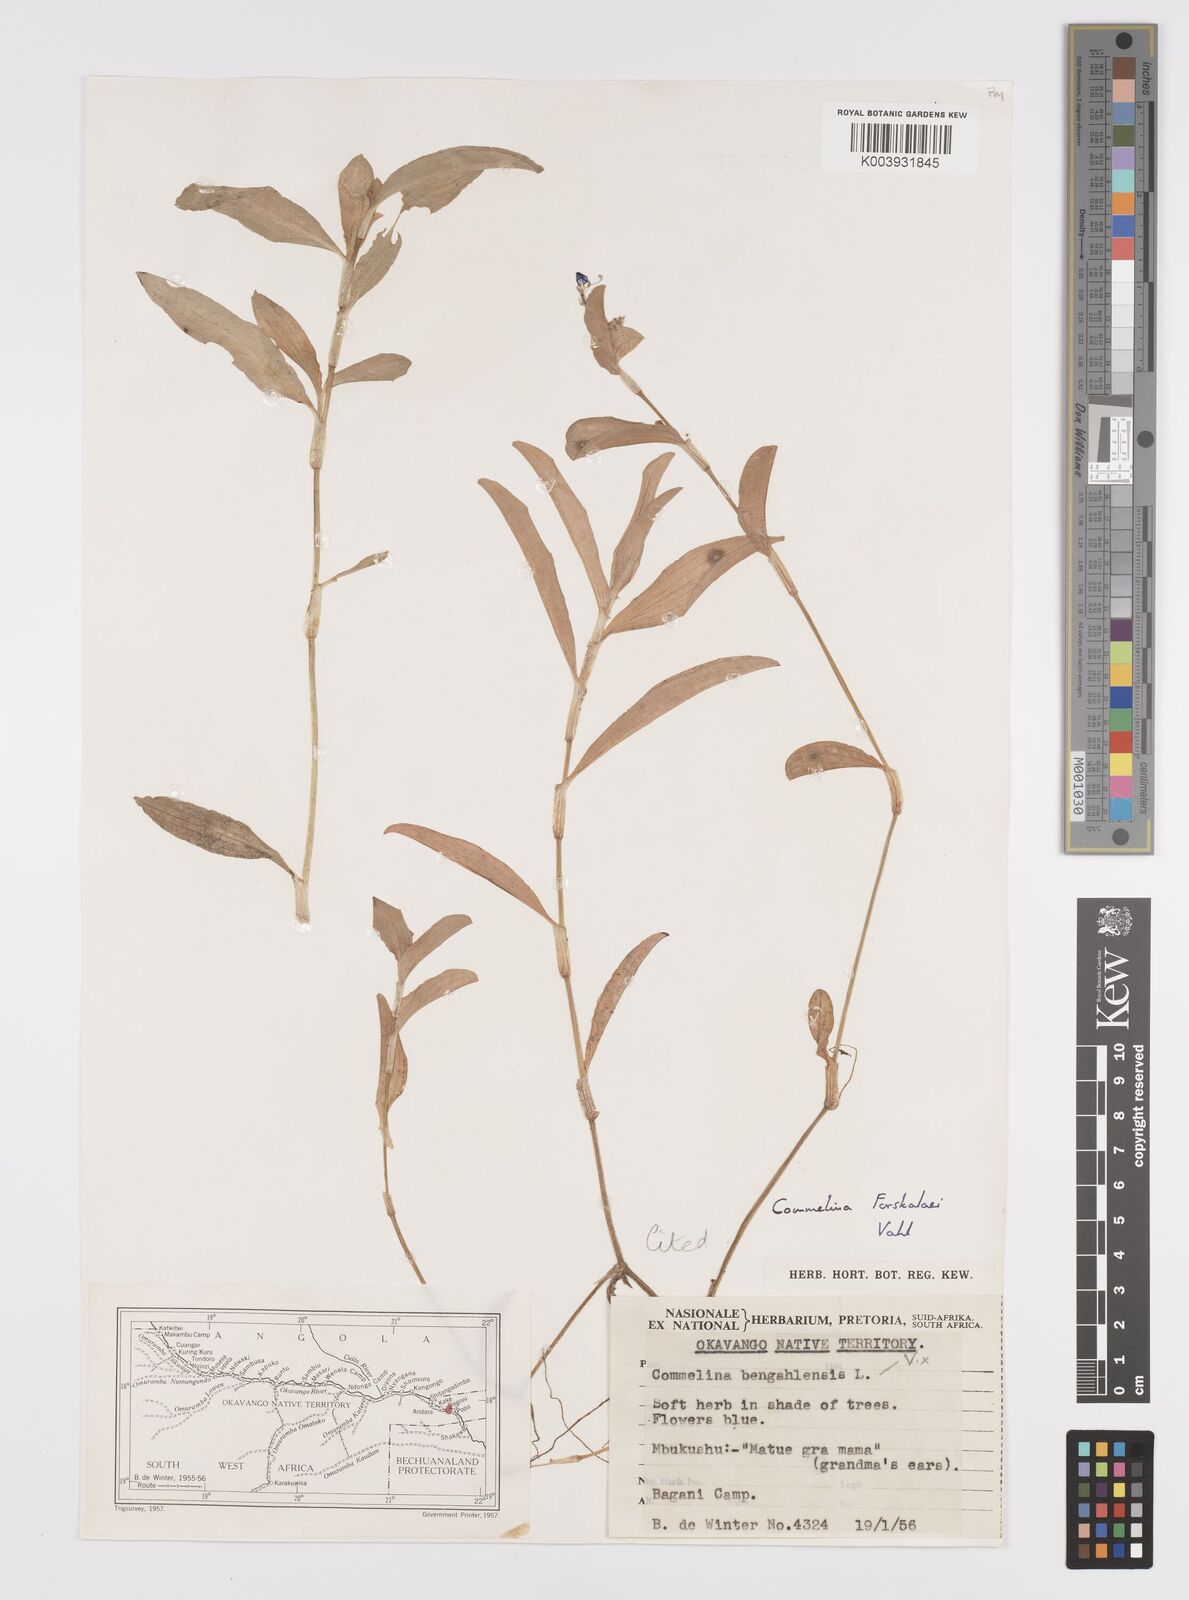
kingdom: Plantae
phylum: Tracheophyta
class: Liliopsida
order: Commelinales
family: Commelinaceae
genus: Commelina
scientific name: Commelina forskaolii
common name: Rat's ear
